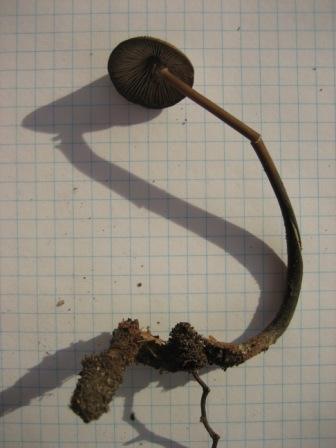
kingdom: Fungi
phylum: Basidiomycota
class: Agaricomycetes
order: Agaricales
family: Omphalotaceae
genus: Mycetinis
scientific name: Mycetinis alliaceus
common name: stor løghat
